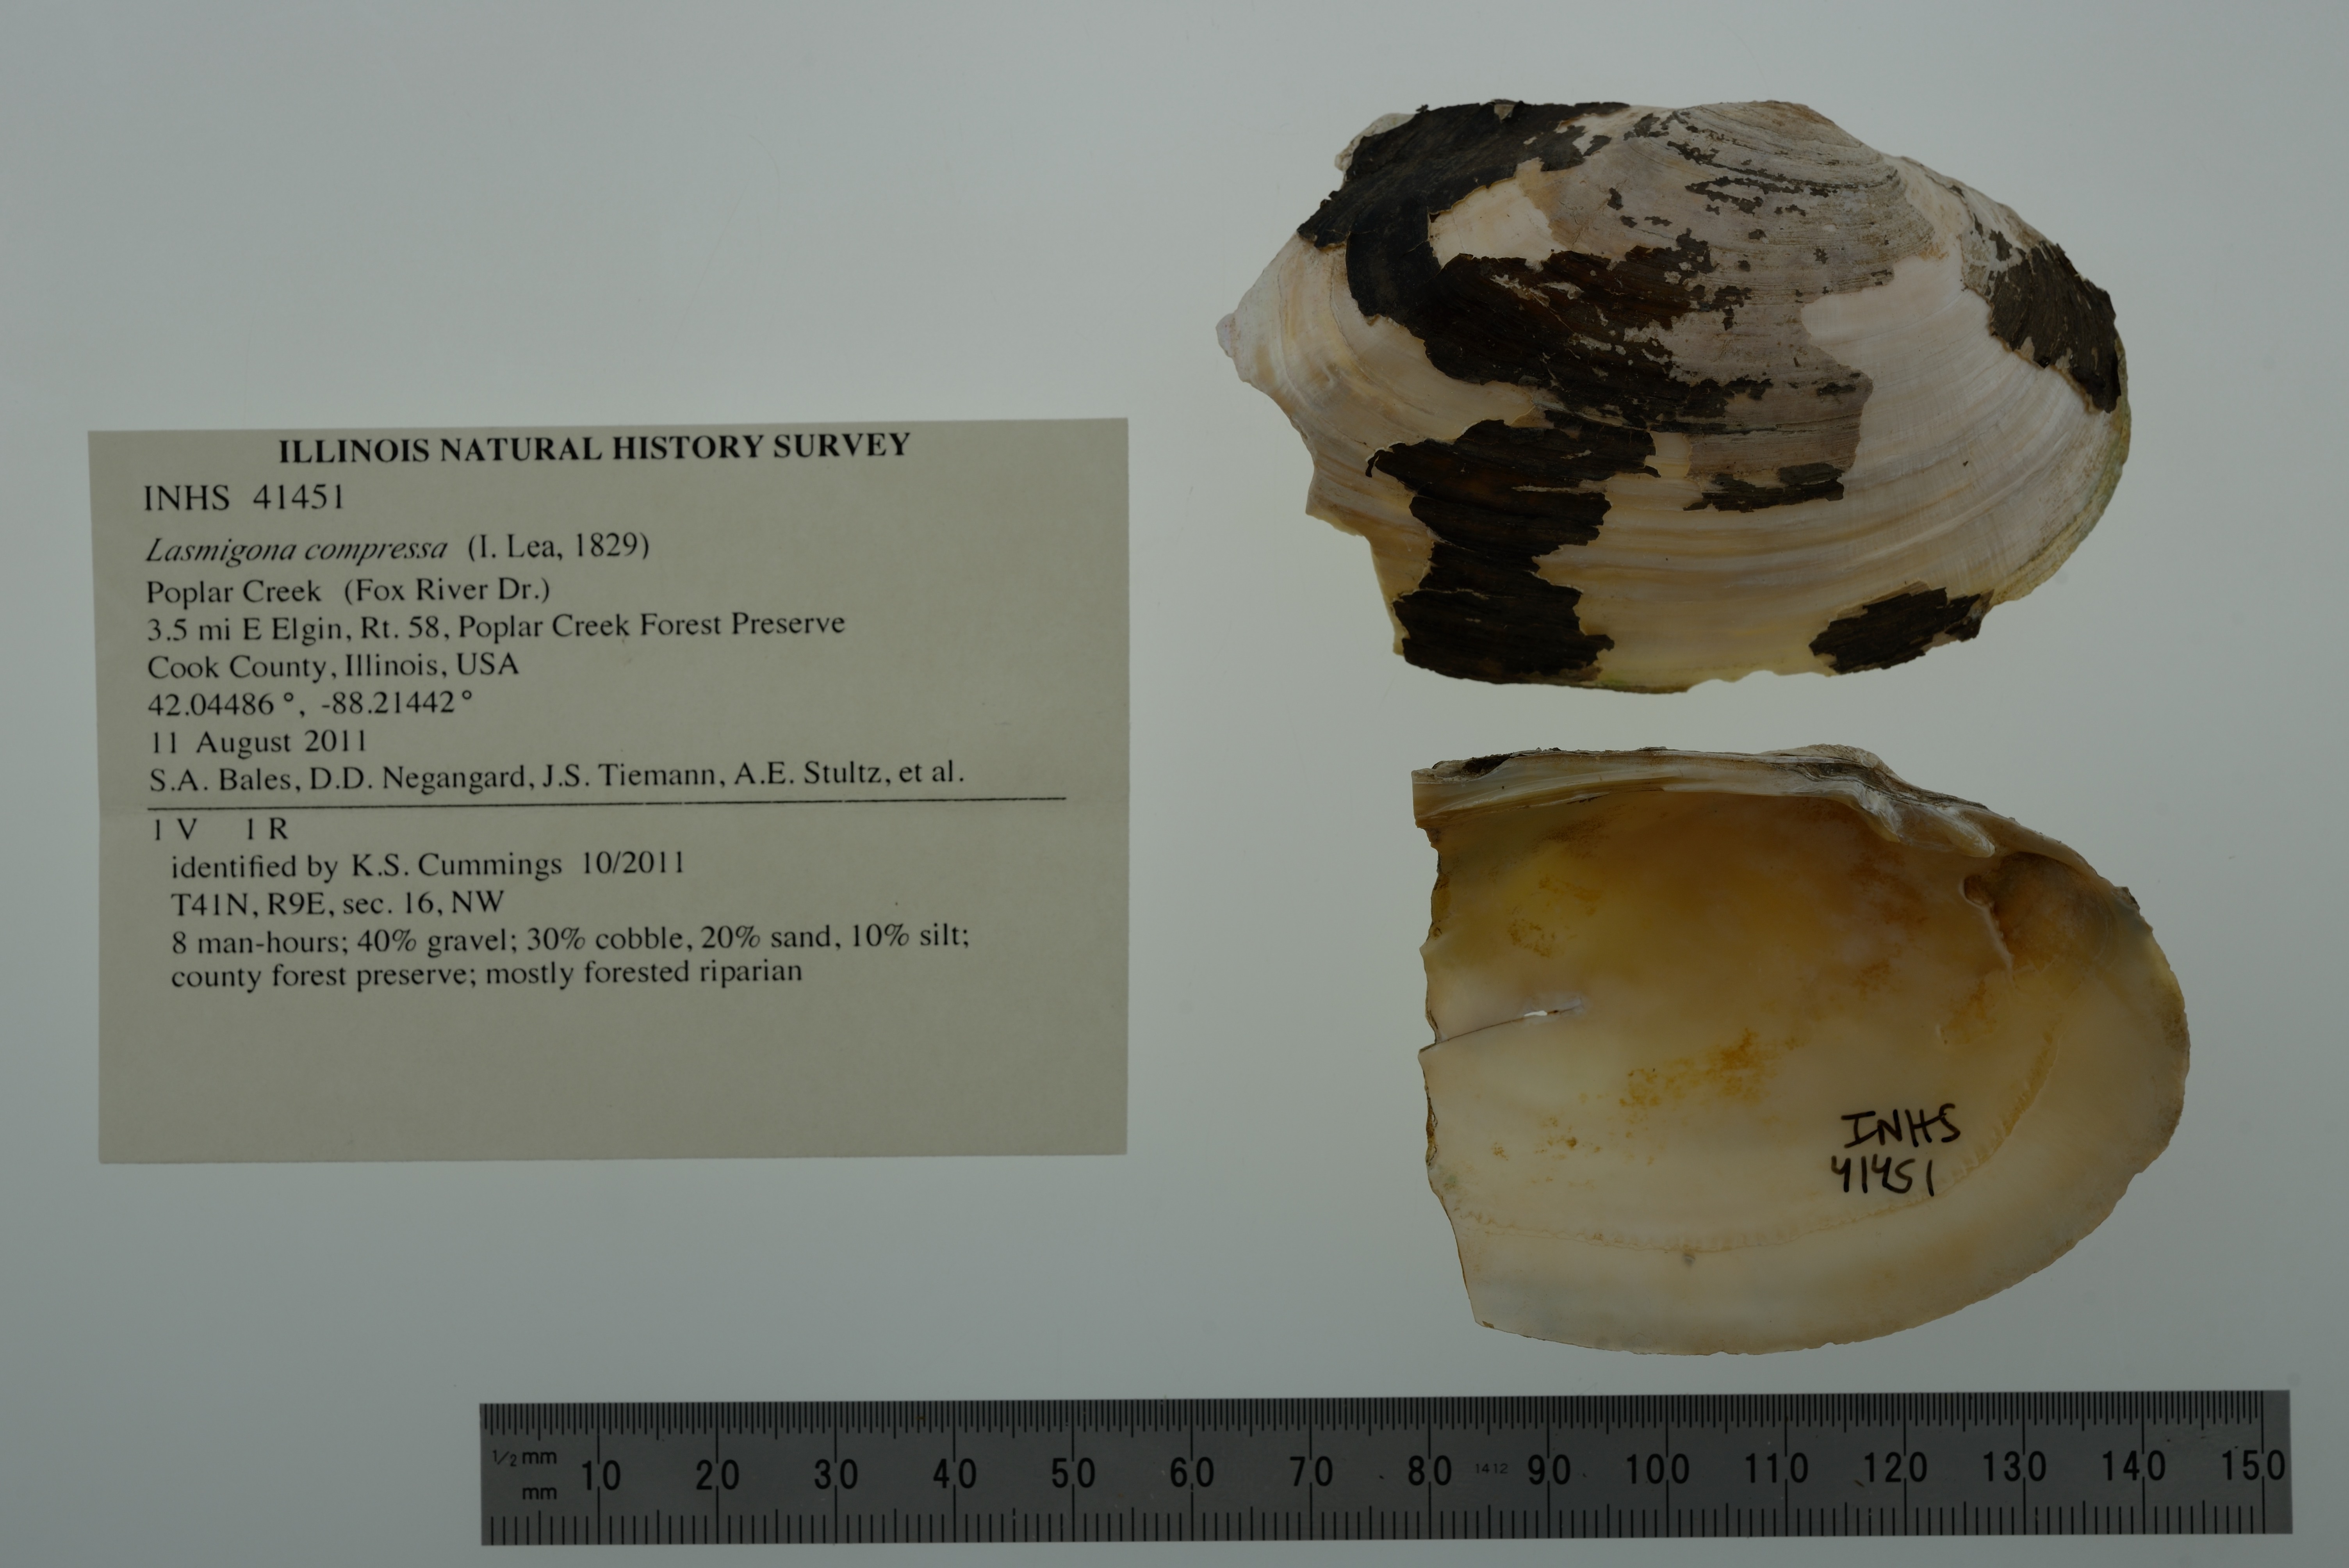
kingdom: Animalia
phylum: Mollusca
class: Bivalvia
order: Unionida
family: Unionidae
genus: Lasmigona
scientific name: Lasmigona compressa
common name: Creek heelsplitter
